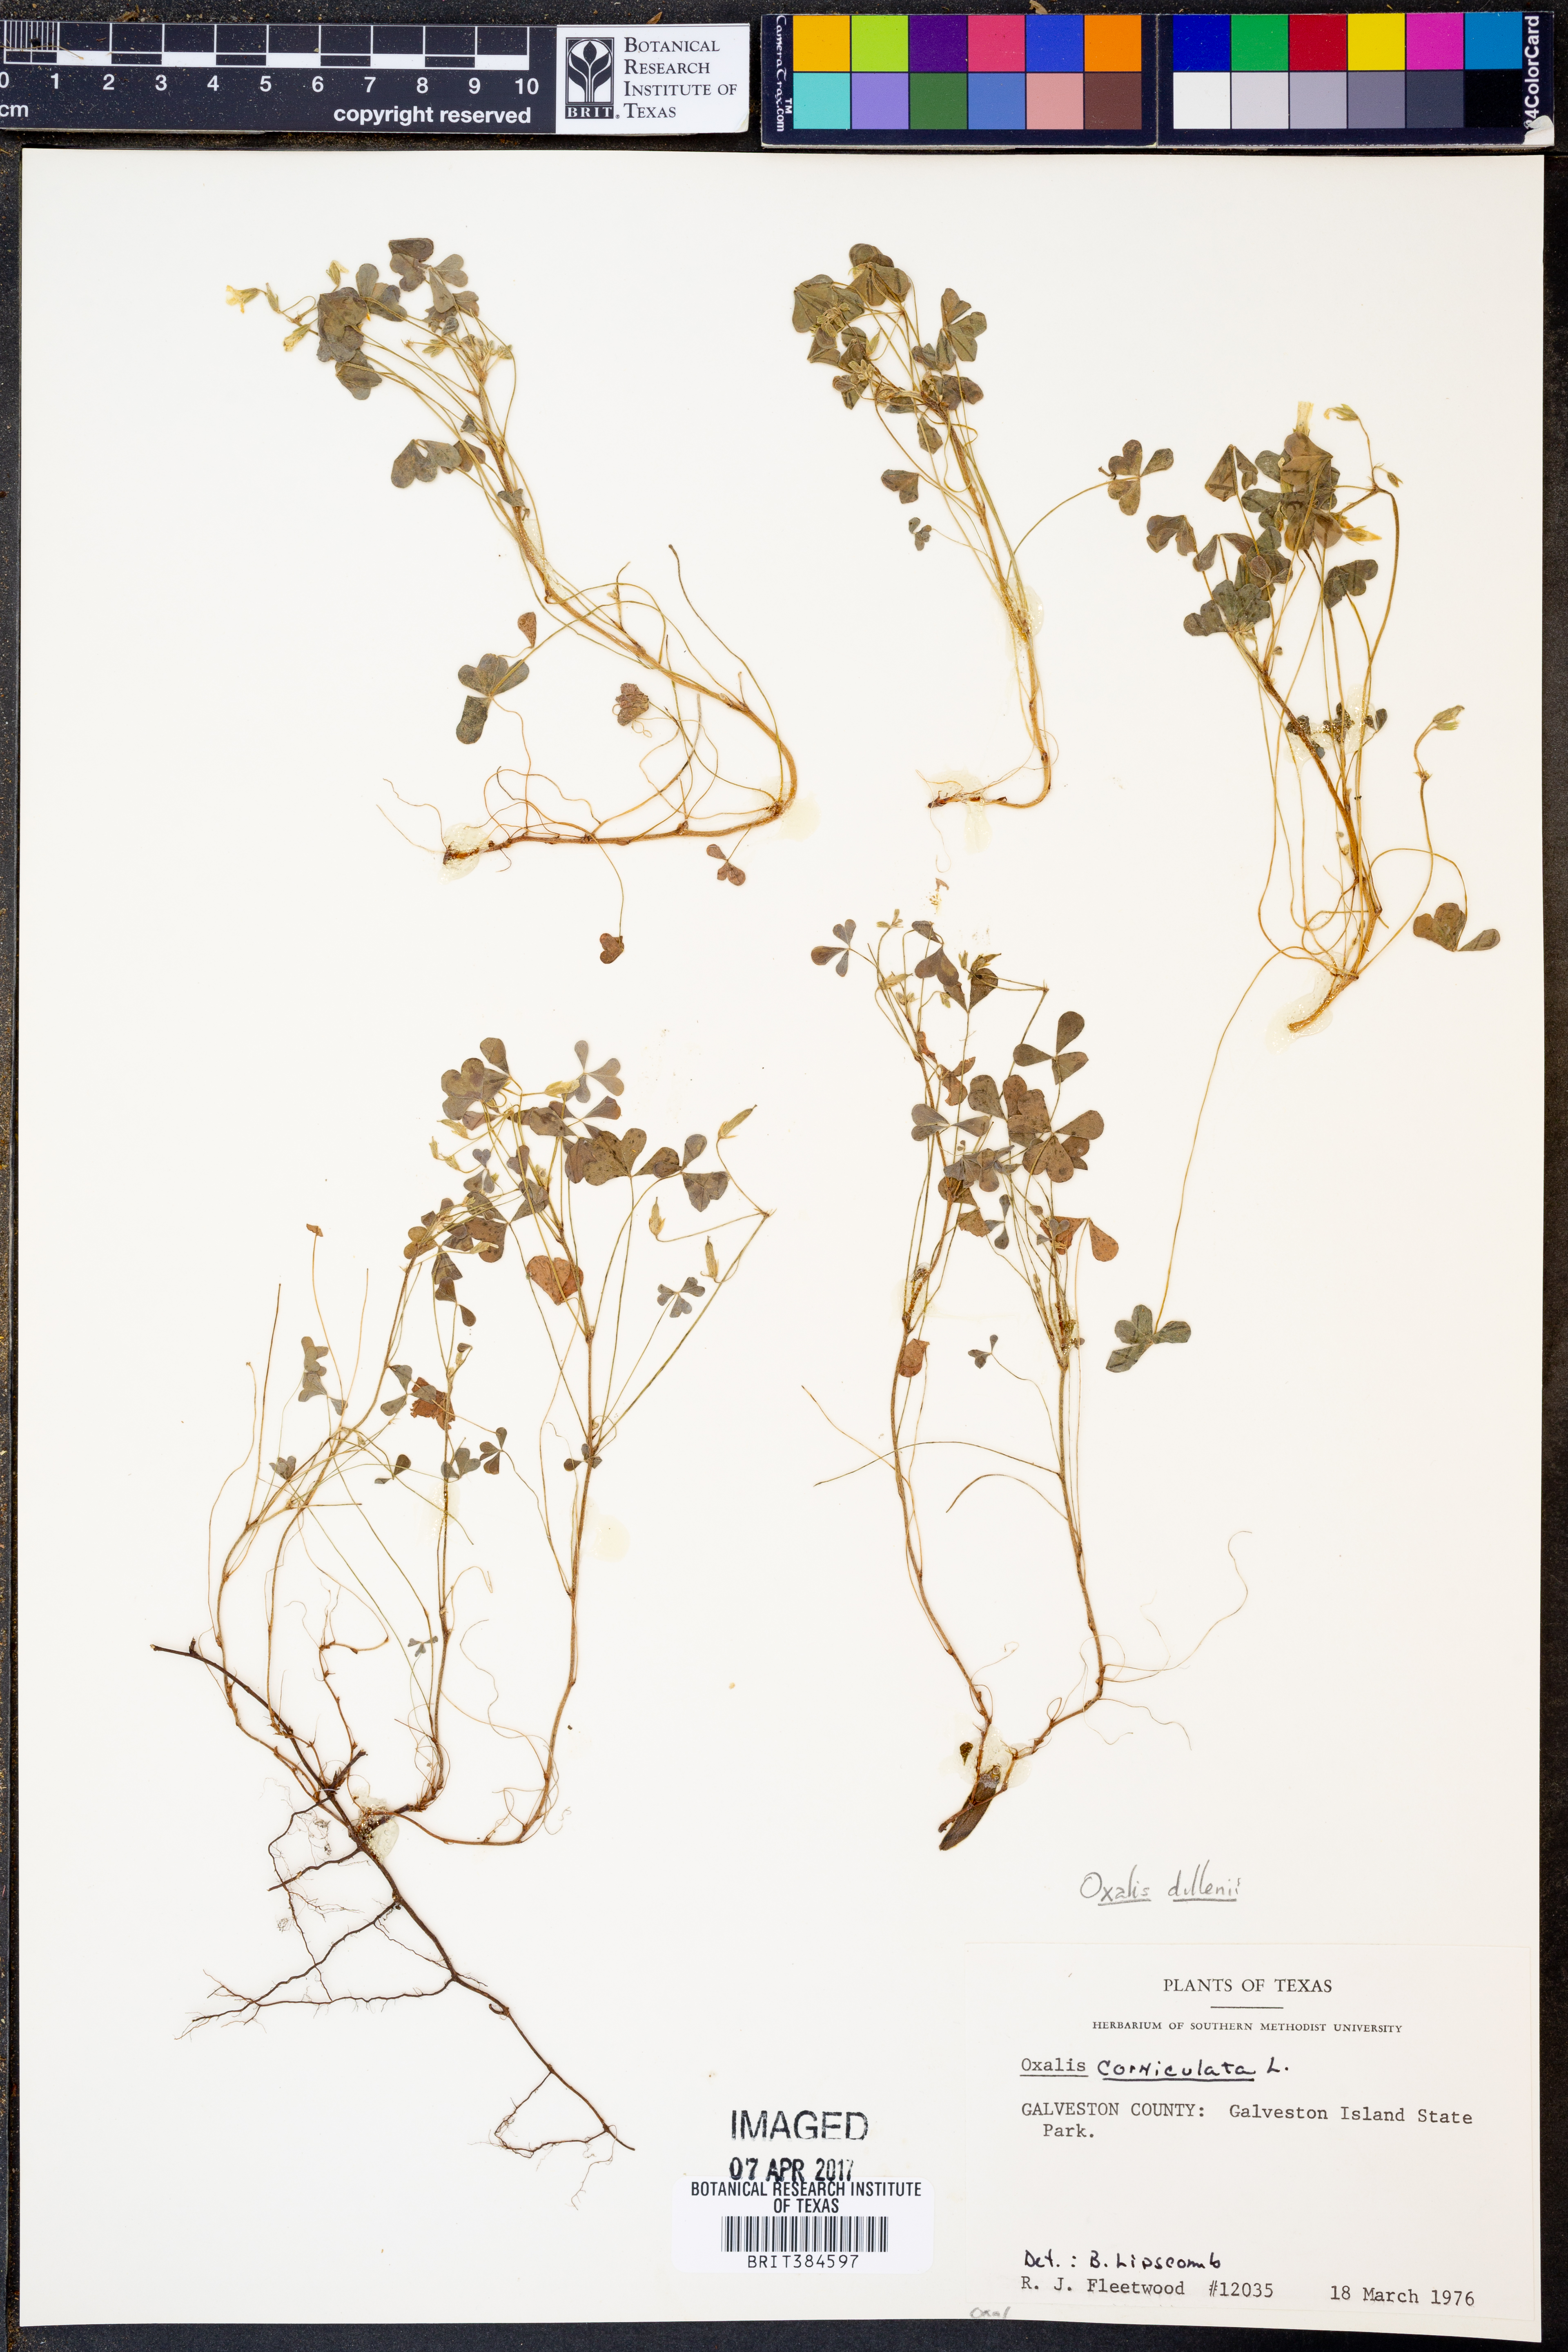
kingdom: Plantae
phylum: Tracheophyta
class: Magnoliopsida
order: Oxalidales
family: Oxalidaceae
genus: Oxalis
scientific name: Oxalis dillenii
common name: Sussex yellow-sorrel
